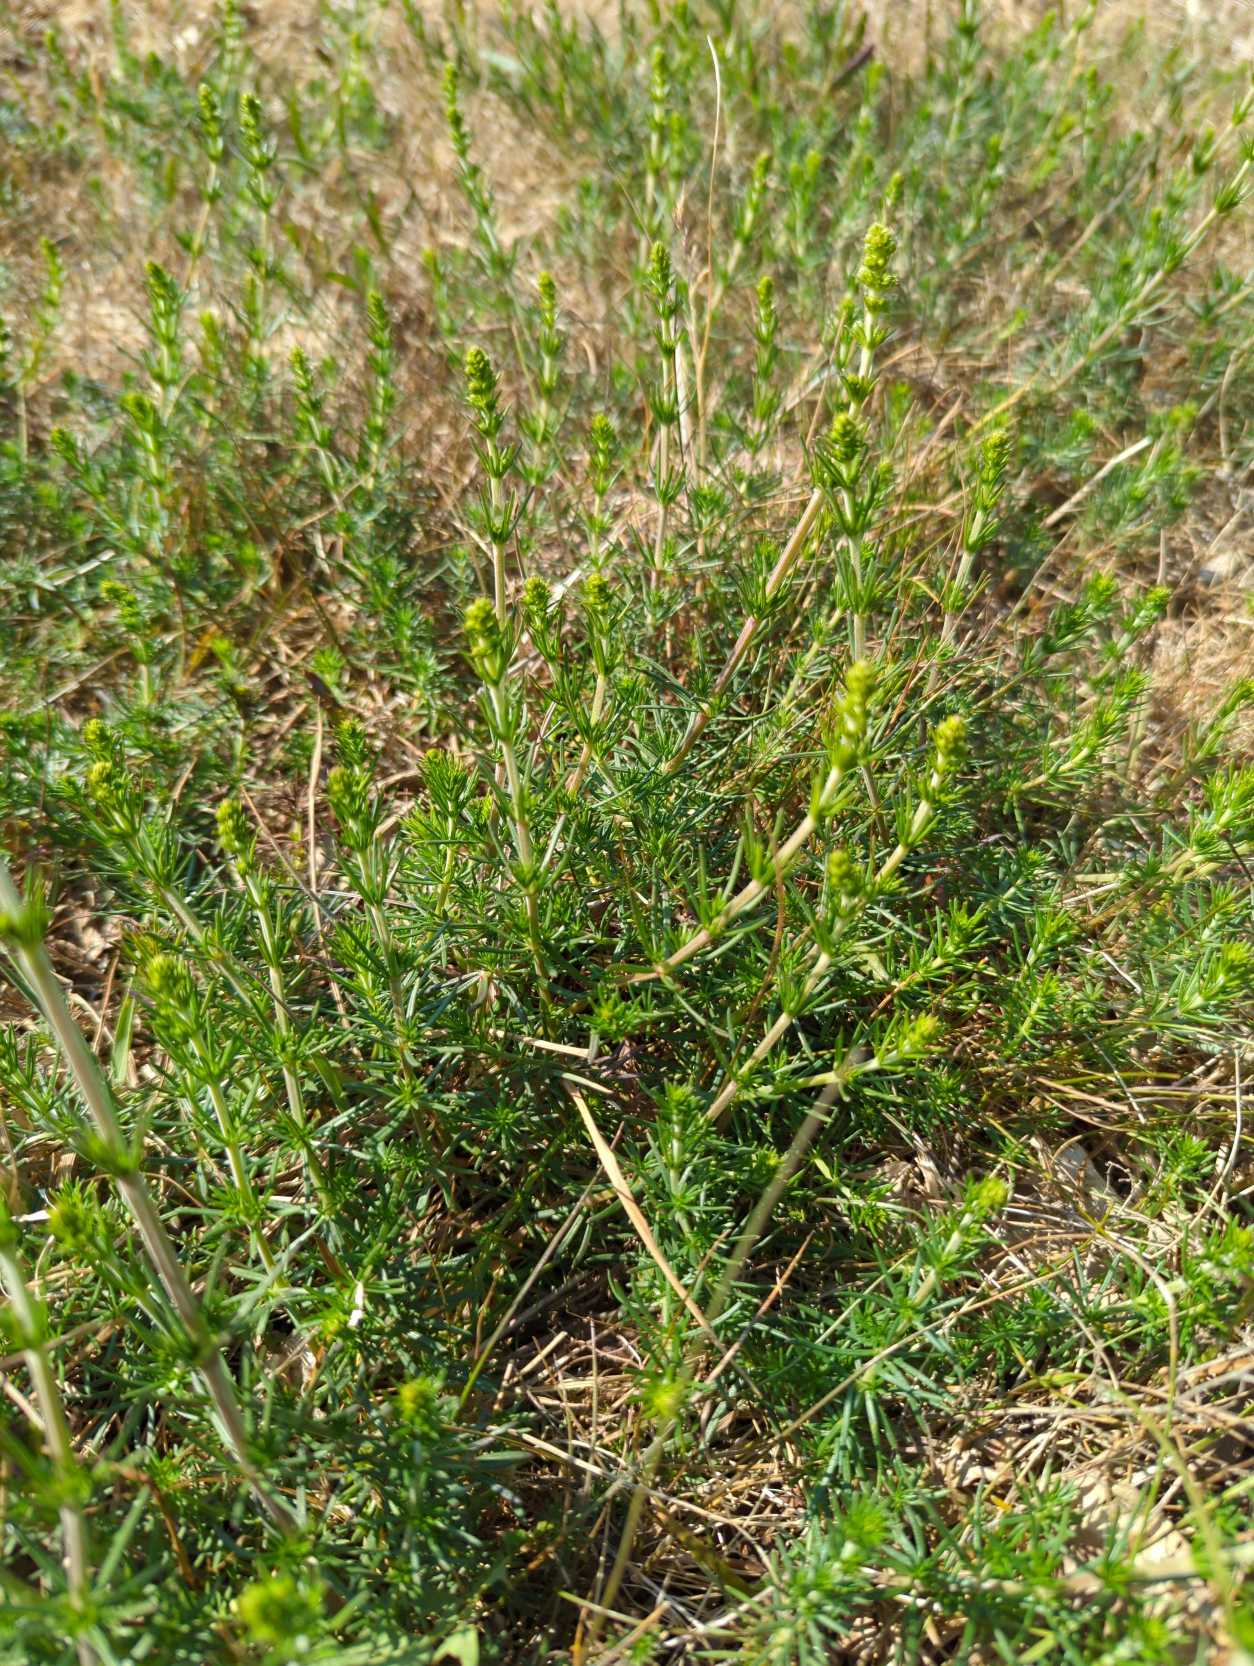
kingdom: Plantae
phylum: Tracheophyta
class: Magnoliopsida
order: Gentianales
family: Rubiaceae
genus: Galium
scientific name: Galium verum
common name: Gul snerre
